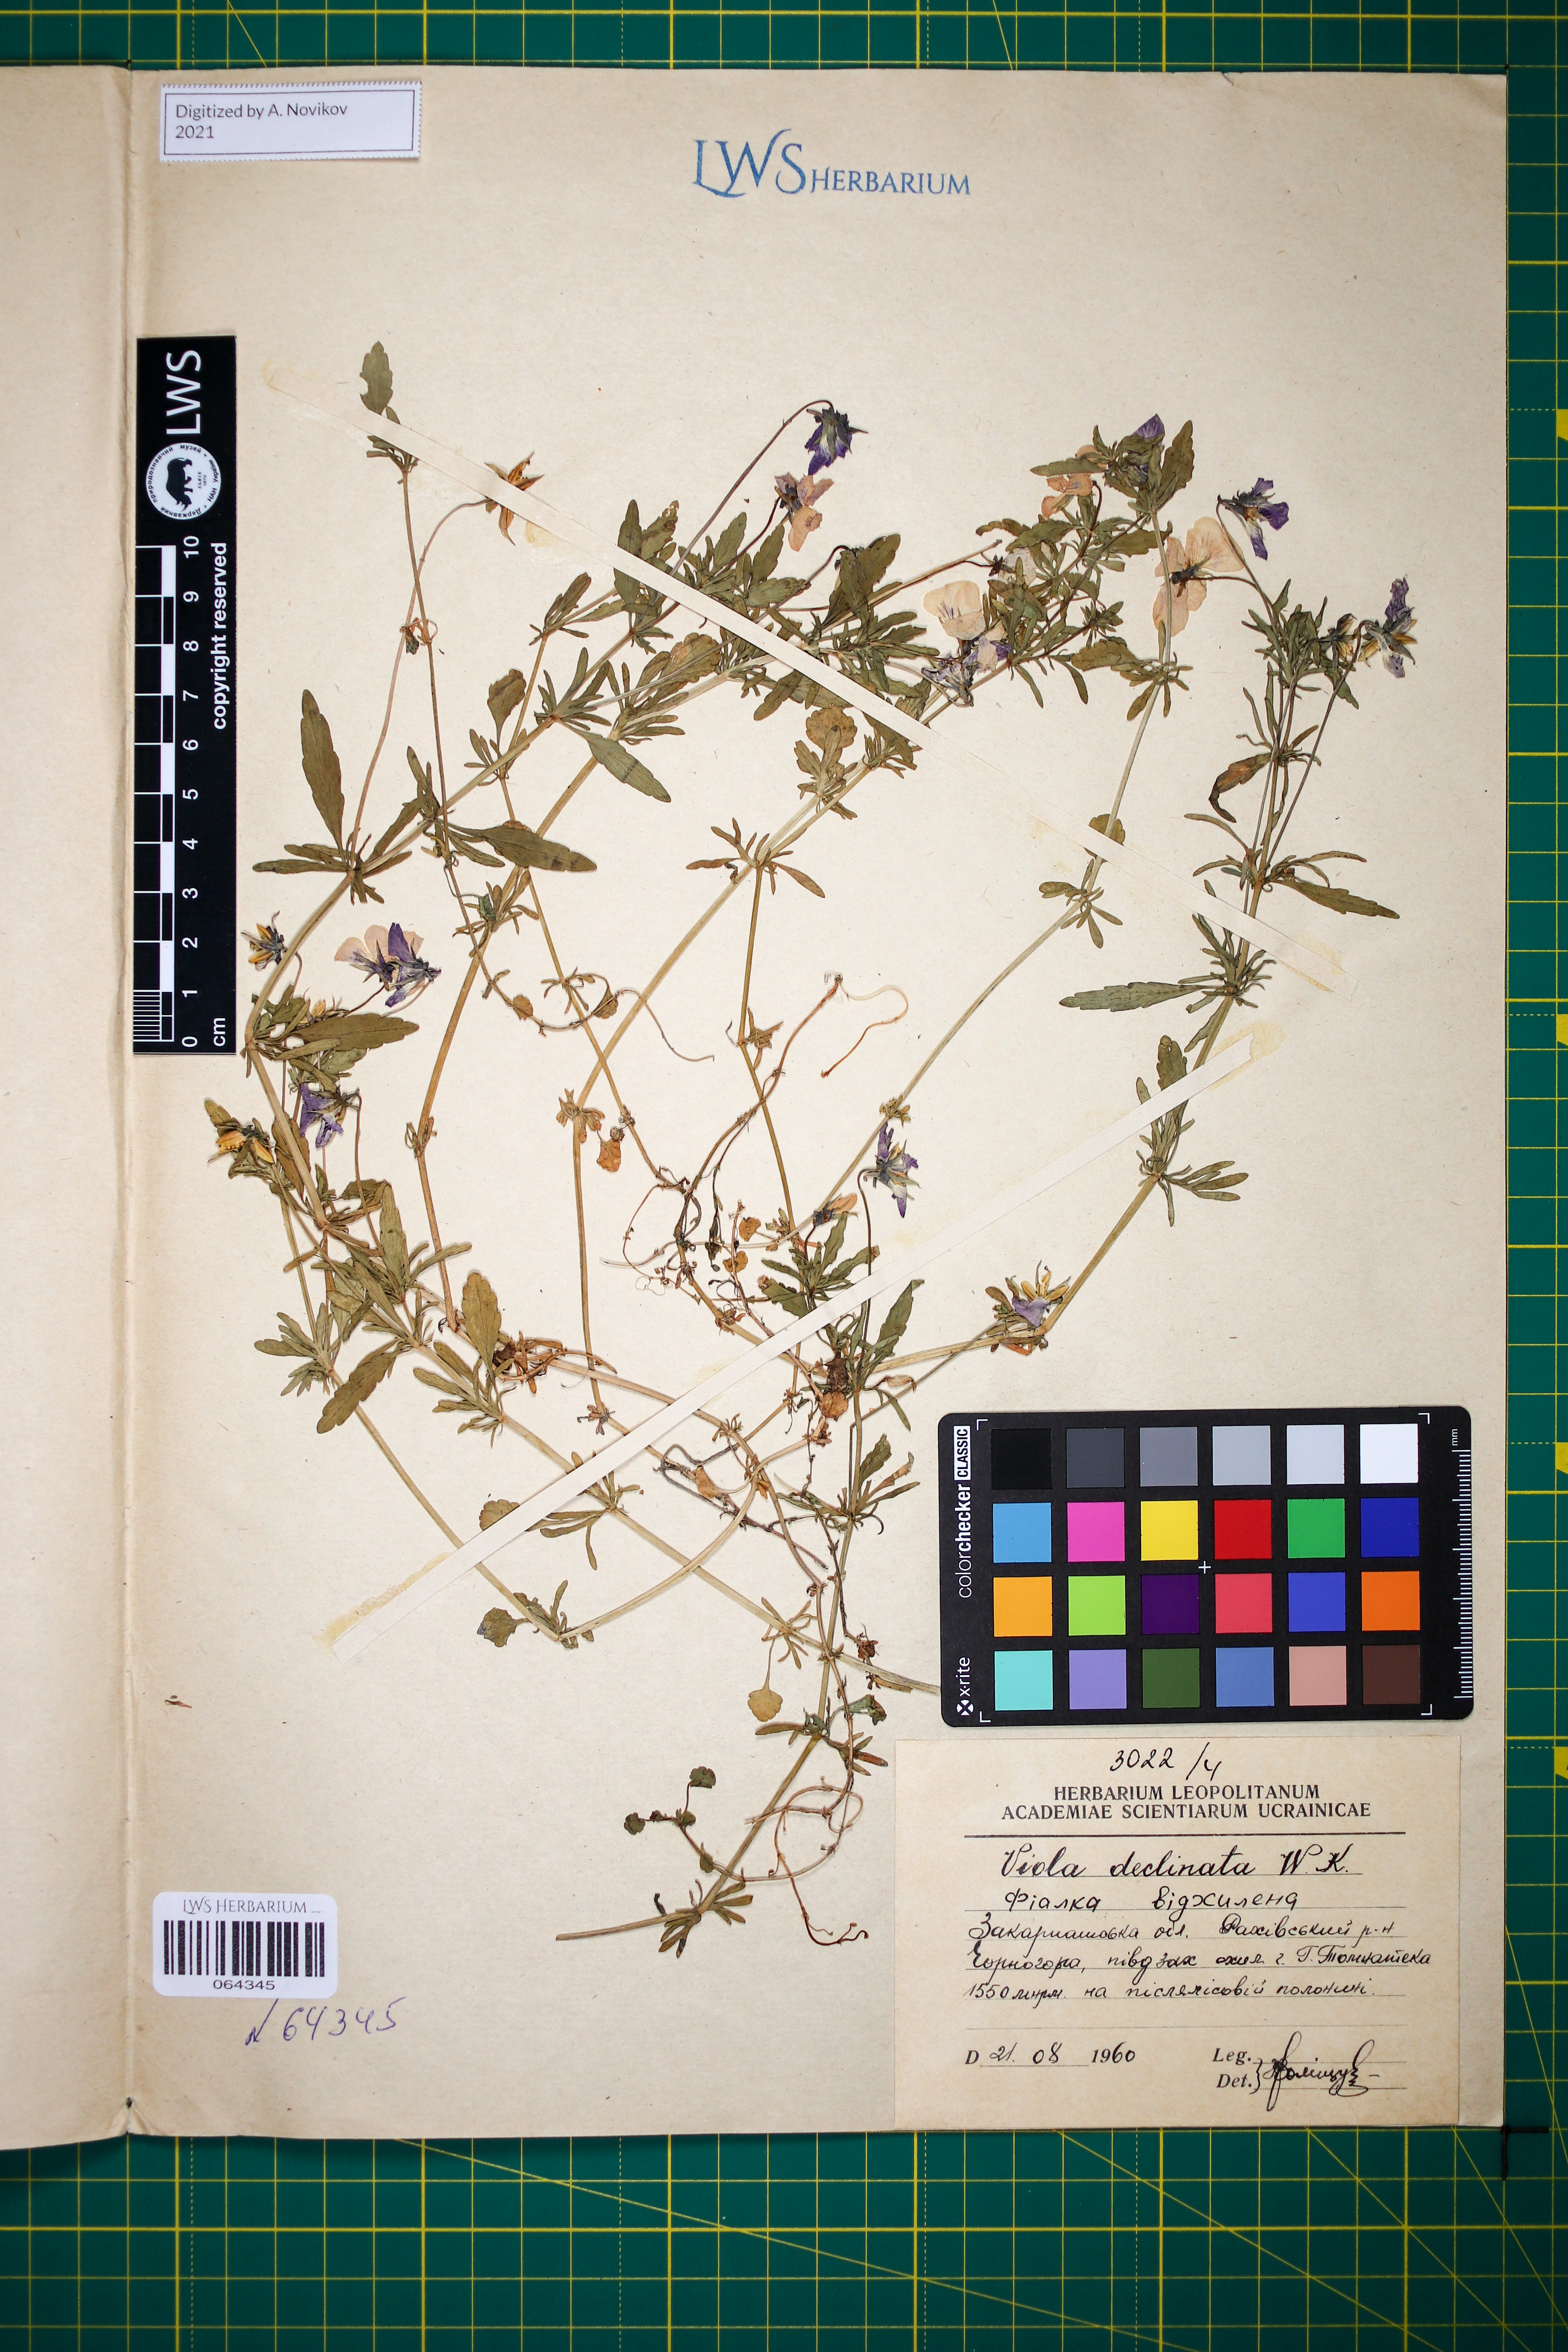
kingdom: Plantae
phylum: Tracheophyta
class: Magnoliopsida
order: Malpighiales
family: Violaceae
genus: Viola
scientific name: Viola declinata
